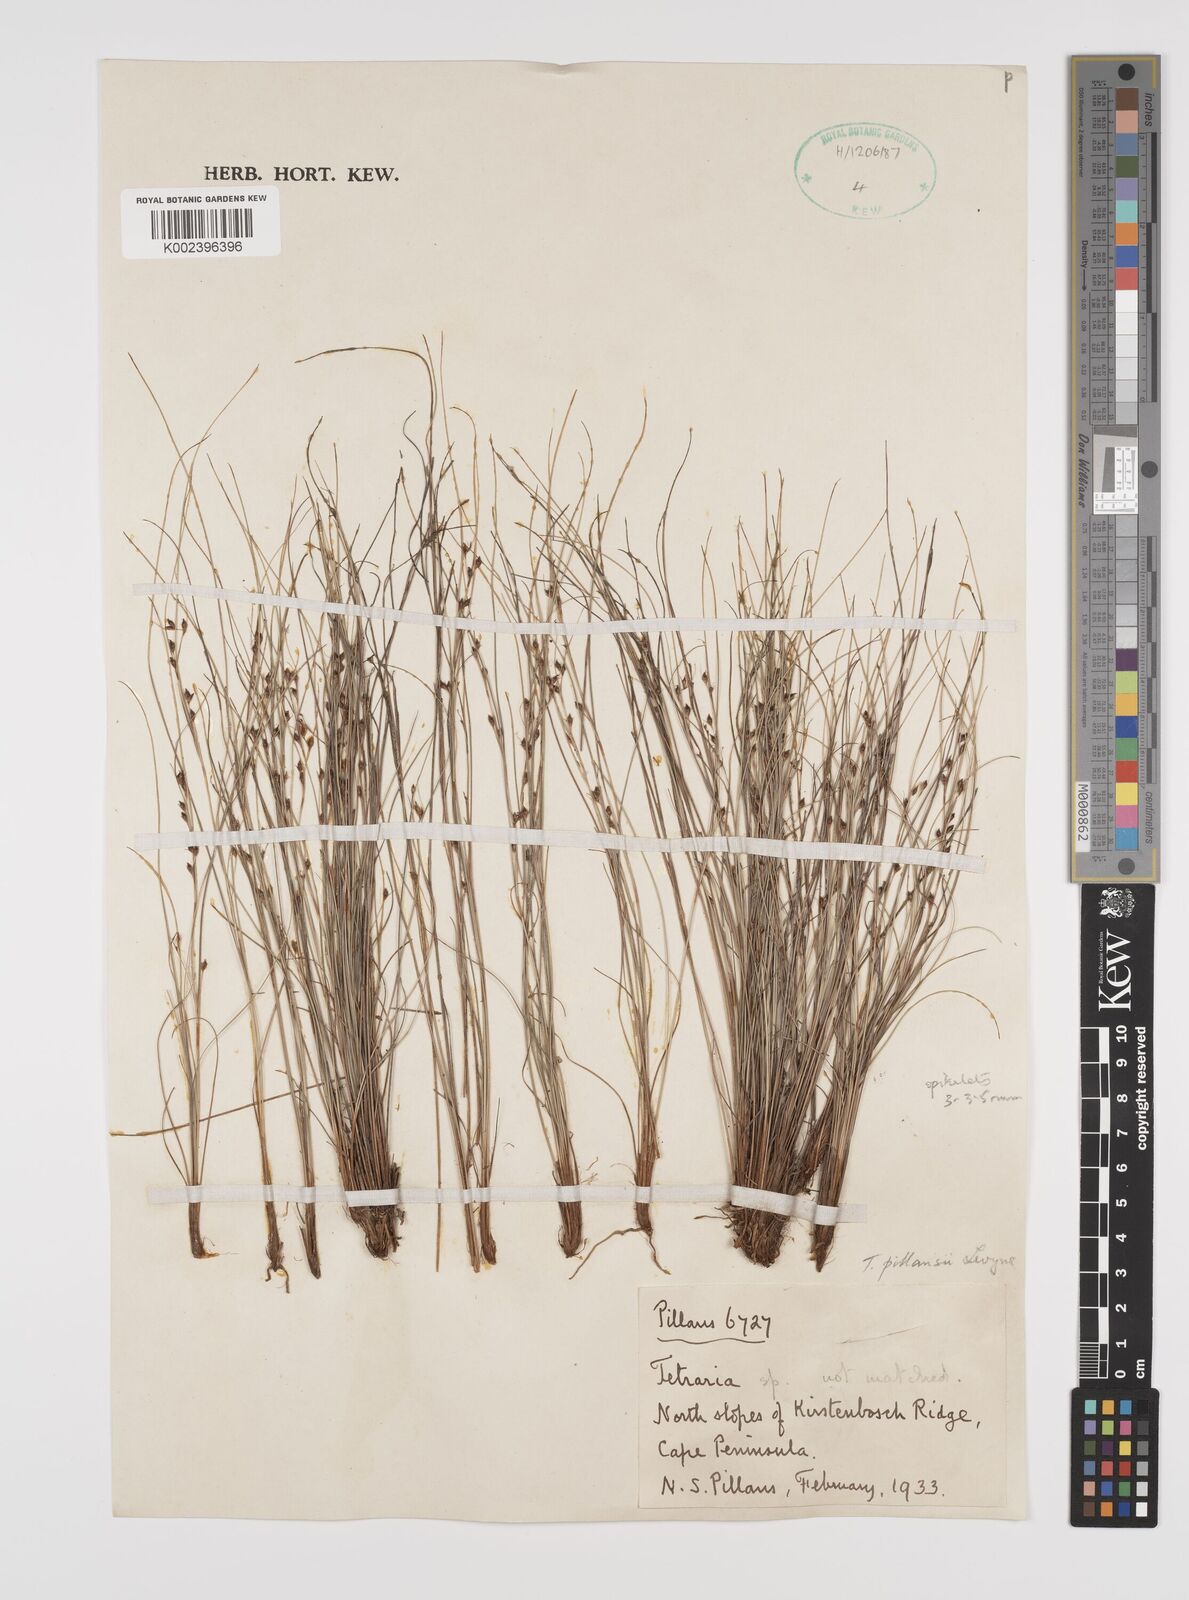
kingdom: Plantae
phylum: Tracheophyta
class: Liliopsida
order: Poales
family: Cyperaceae
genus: Tetraria
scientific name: Tetraria
